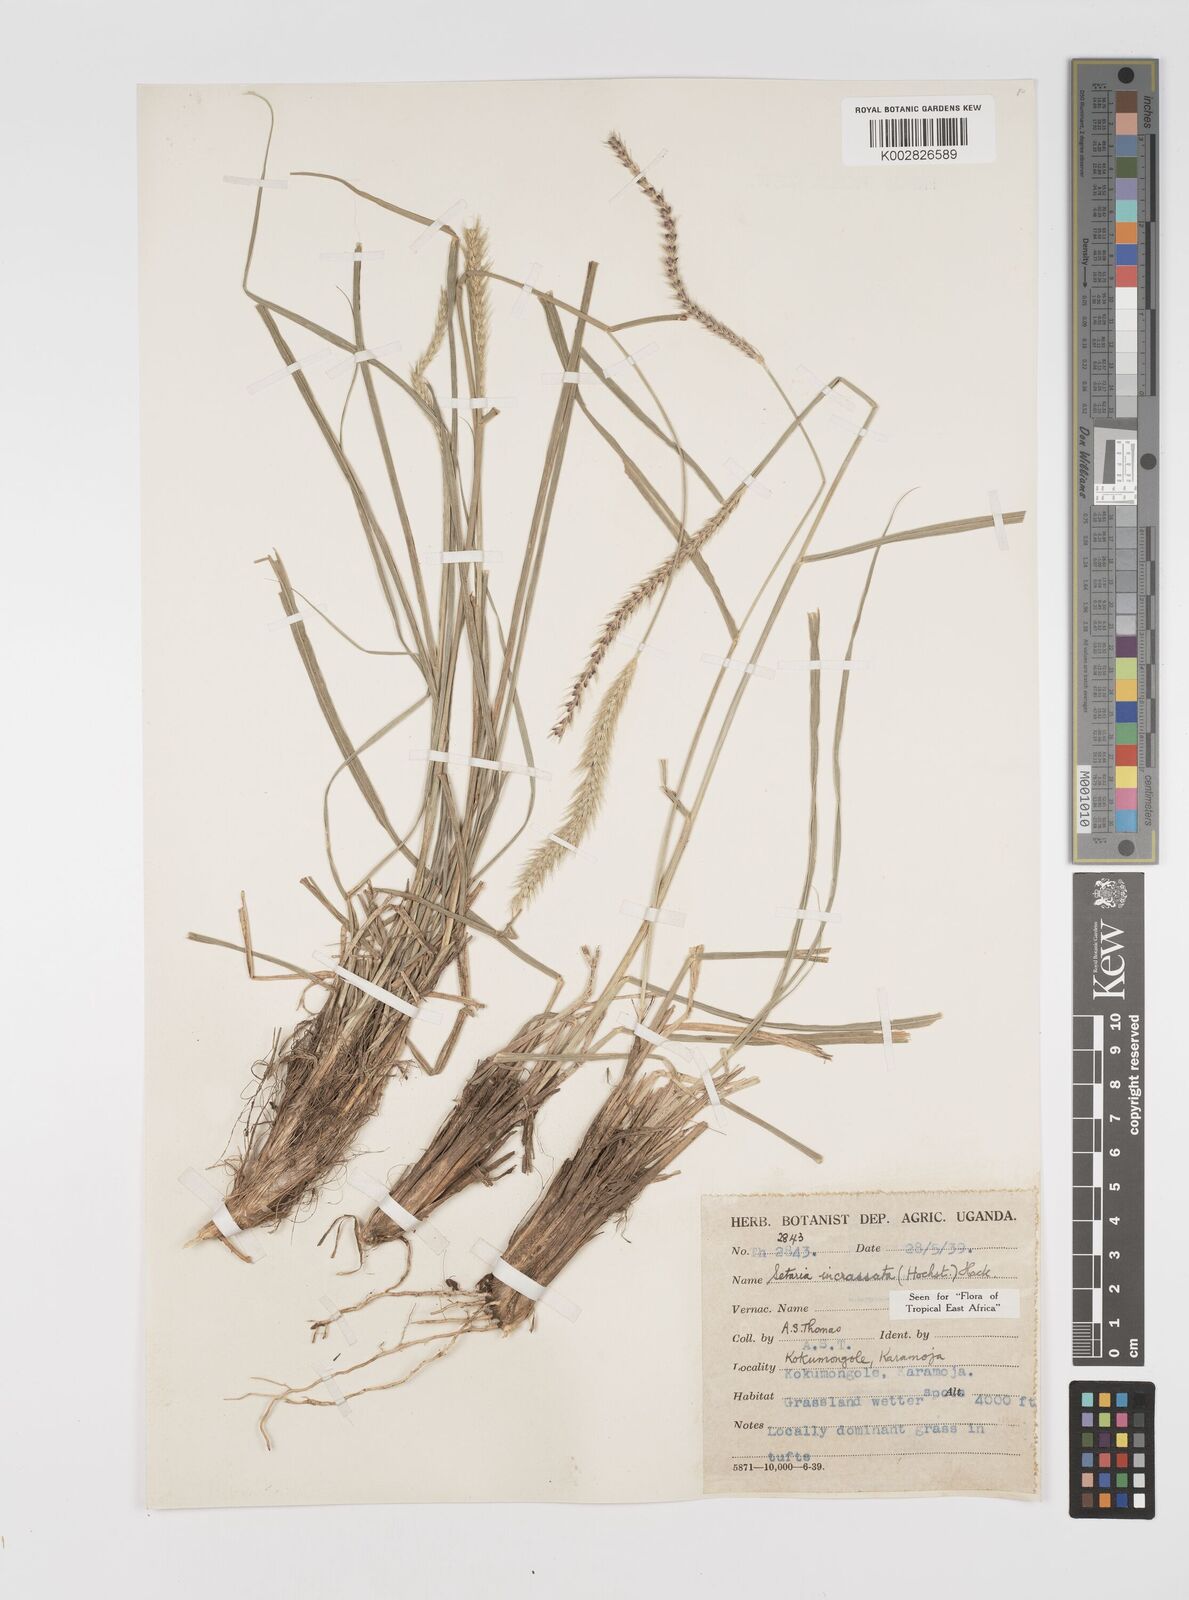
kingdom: Plantae
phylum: Tracheophyta
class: Liliopsida
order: Poales
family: Poaceae
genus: Setaria
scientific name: Setaria carinata
